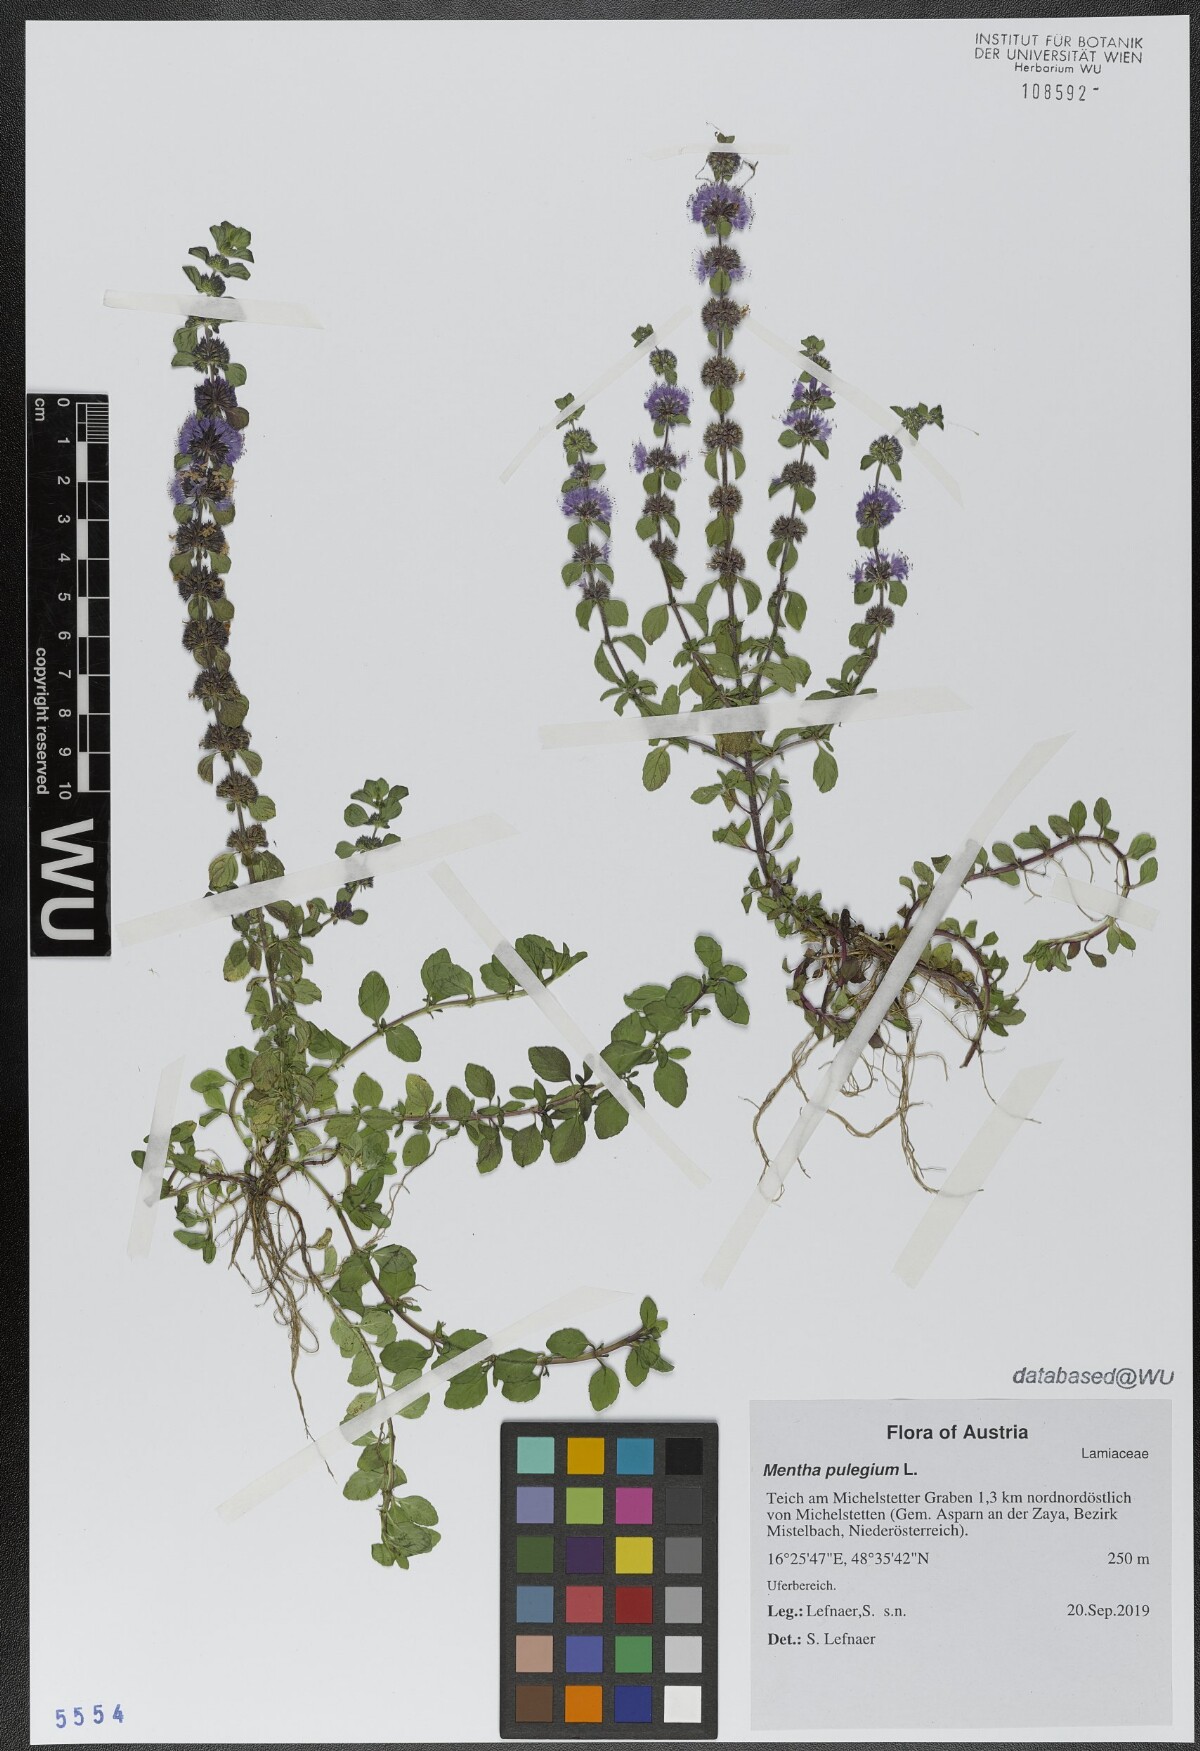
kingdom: Plantae
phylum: Tracheophyta
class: Magnoliopsida
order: Lamiales
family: Lamiaceae
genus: Mentha
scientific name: Mentha pulegium
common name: Pennyroyal
